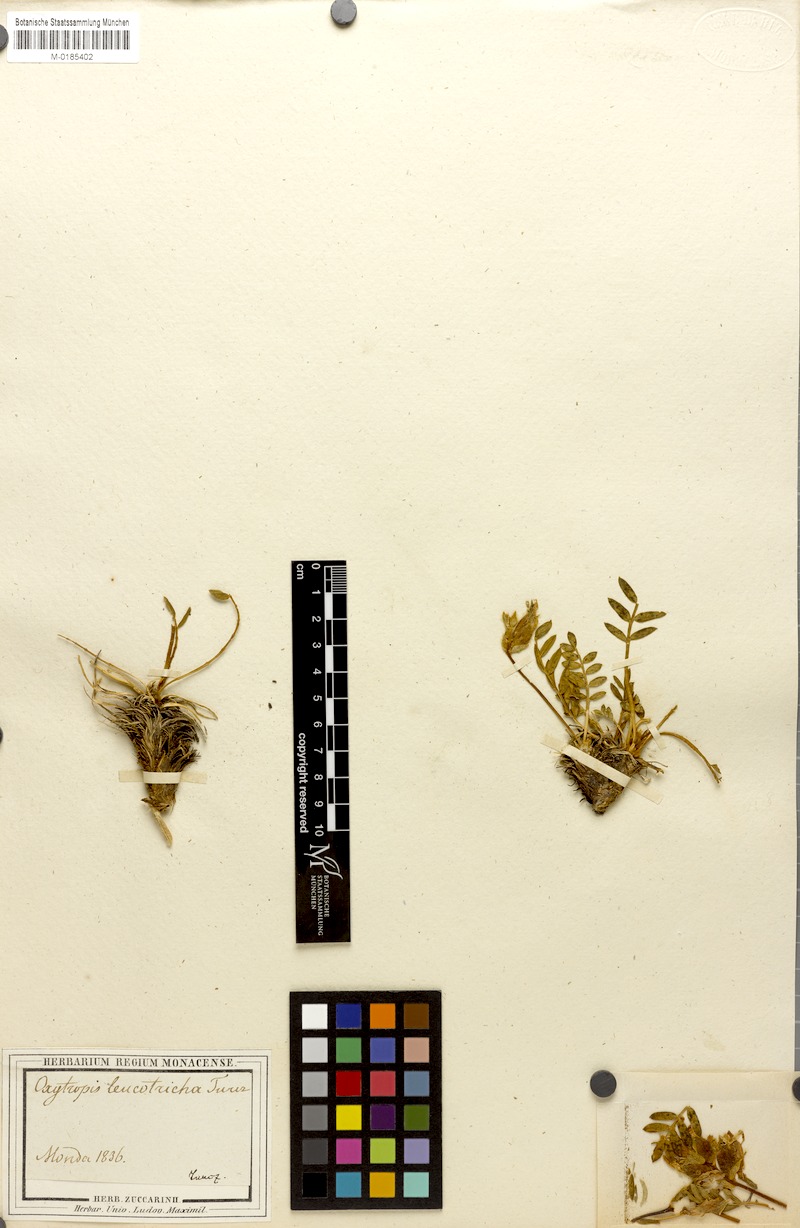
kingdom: Plantae
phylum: Tracheophyta
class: Magnoliopsida
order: Fabales
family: Fabaceae
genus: Oxytropis
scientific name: Oxytropis leucotricha
